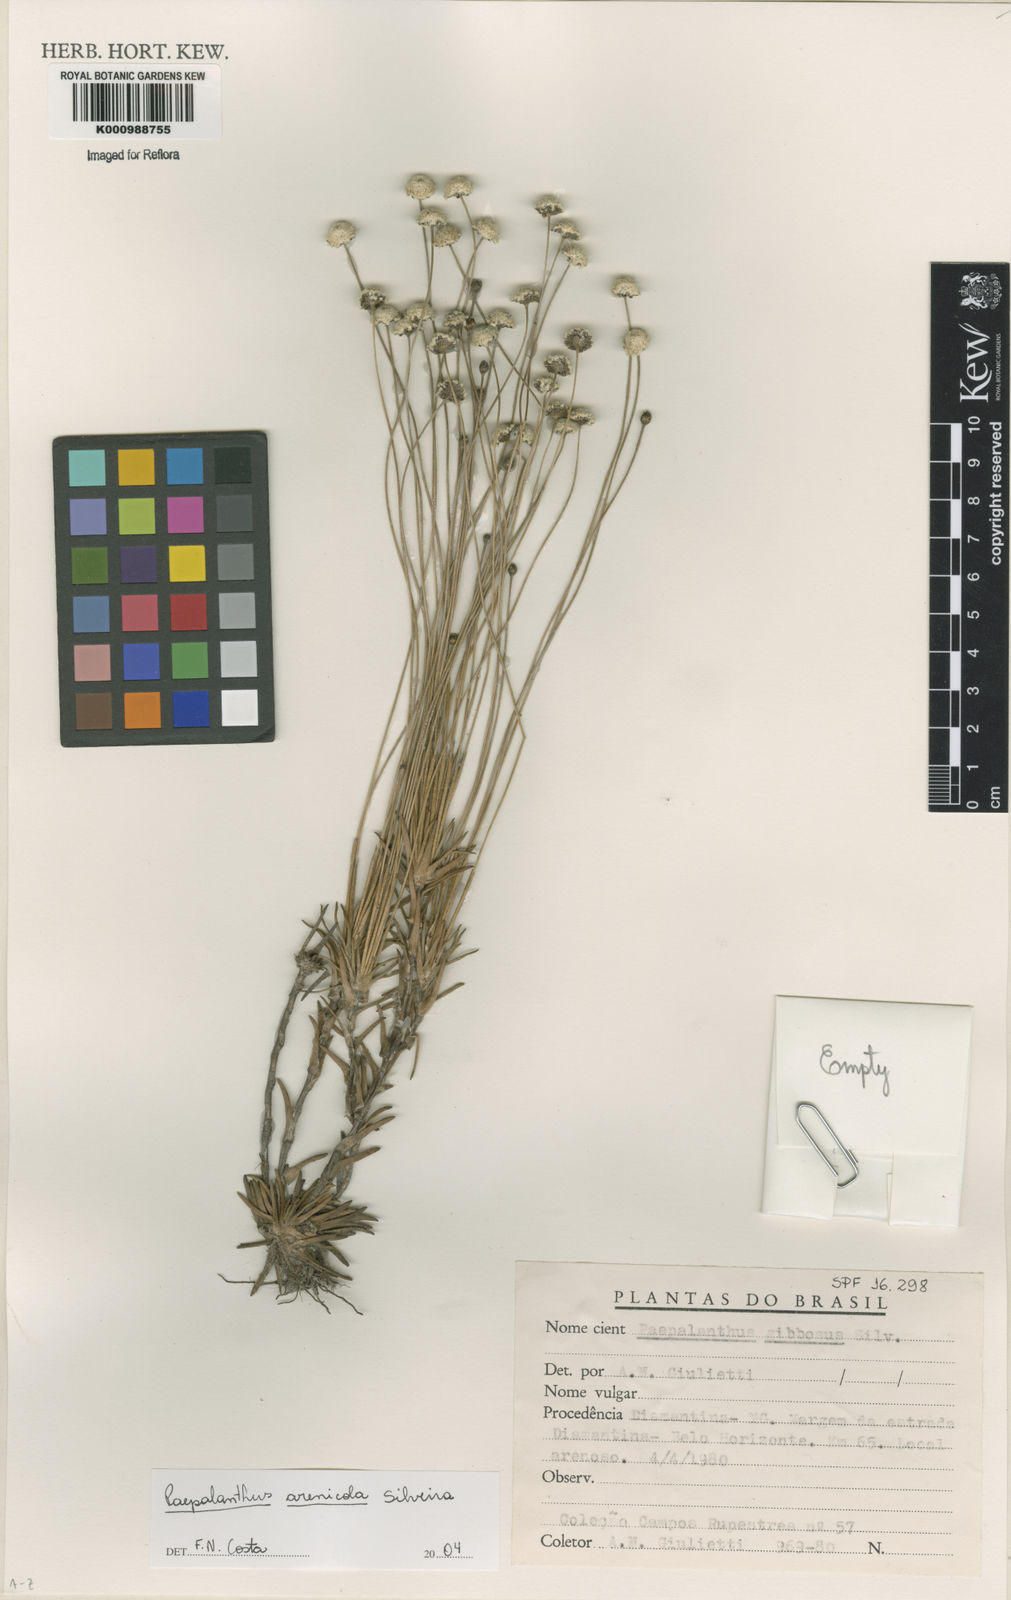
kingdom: Plantae
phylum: Tracheophyta
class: Liliopsida
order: Poales
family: Eriocaulaceae
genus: Paepalanthus
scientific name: Paepalanthus arenicola
